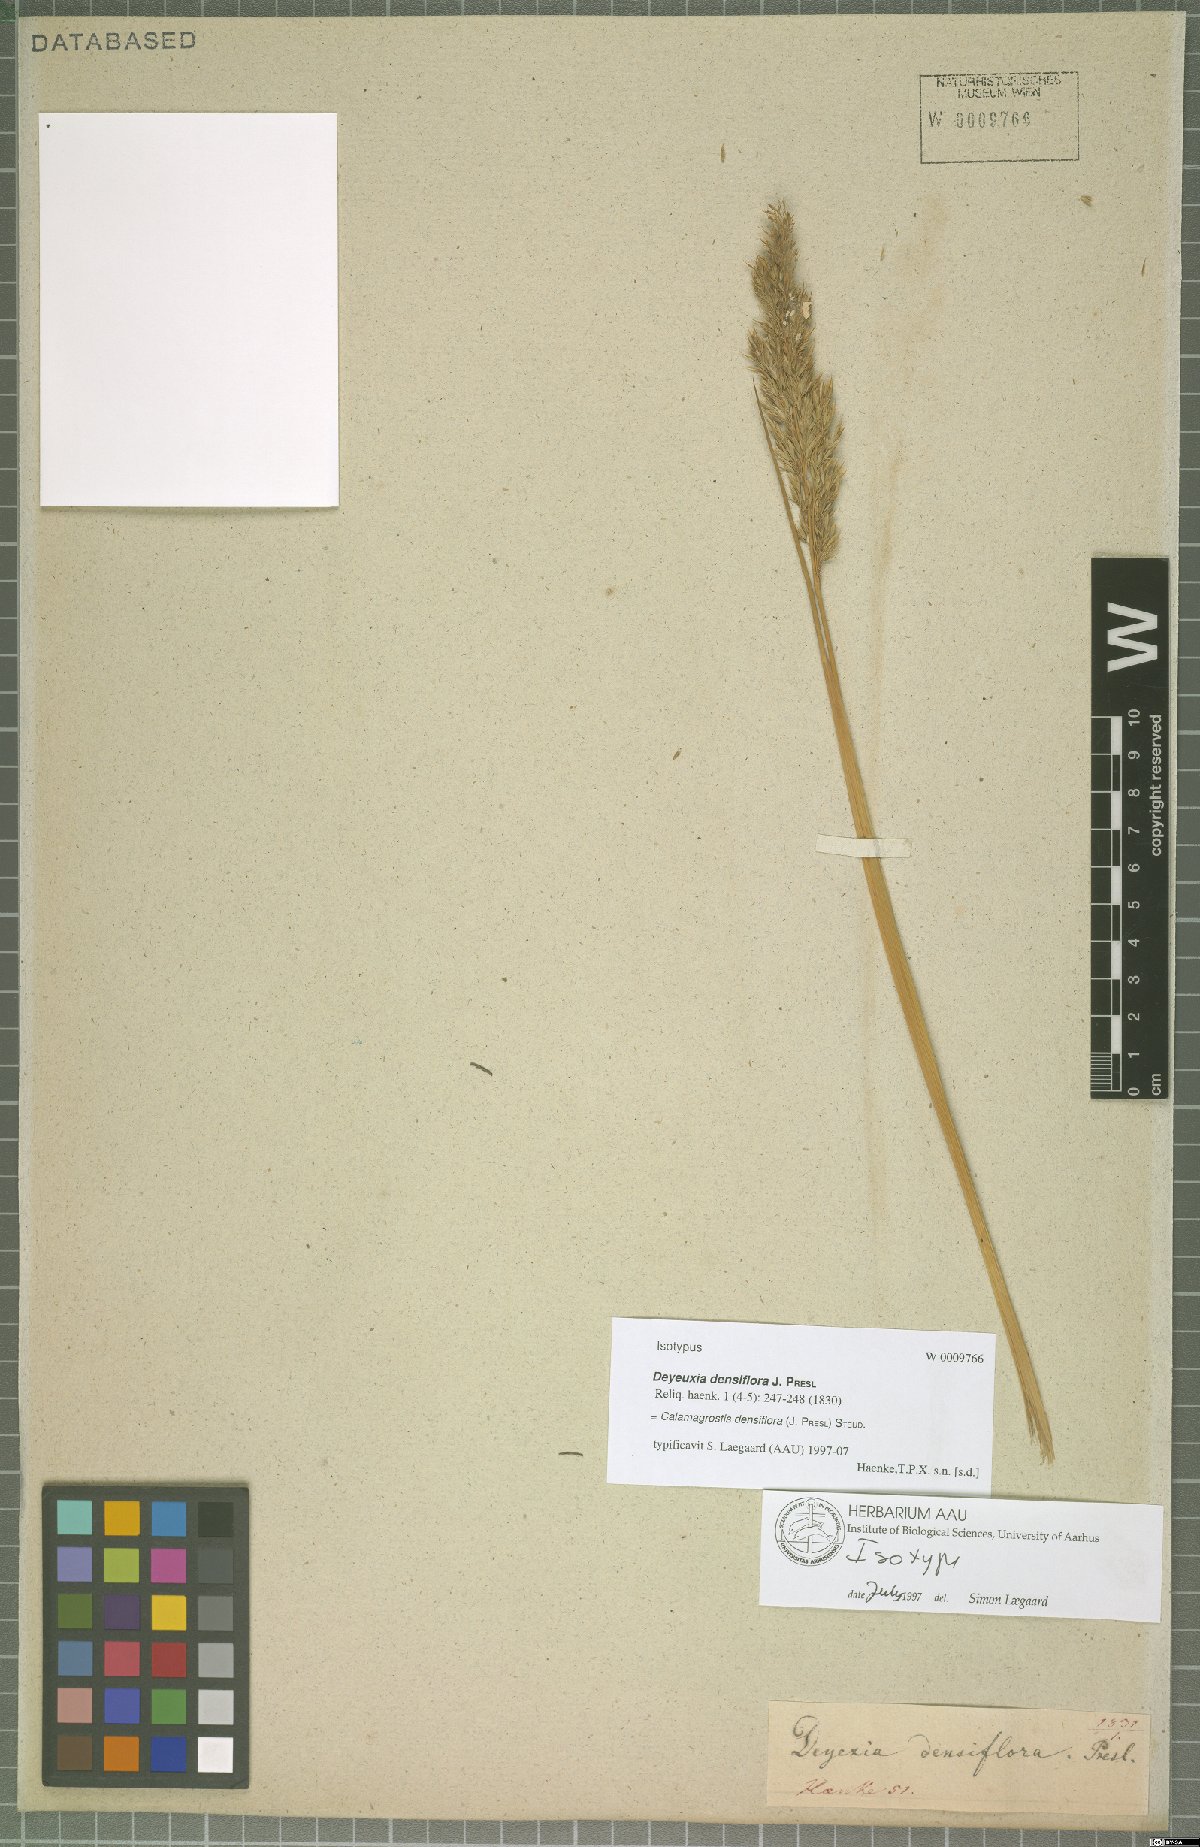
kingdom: Plantae
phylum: Tracheophyta
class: Liliopsida
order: Poales
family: Poaceae
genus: Cinnagrostis
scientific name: Cinnagrostis densiflora
